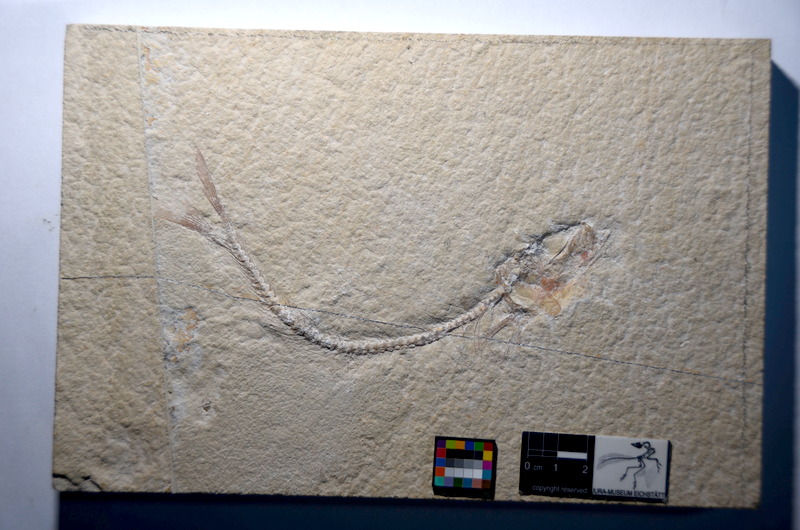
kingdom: Animalia
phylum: Chordata
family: Ascalaboidae
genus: Tharsis
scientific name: Tharsis dubius
